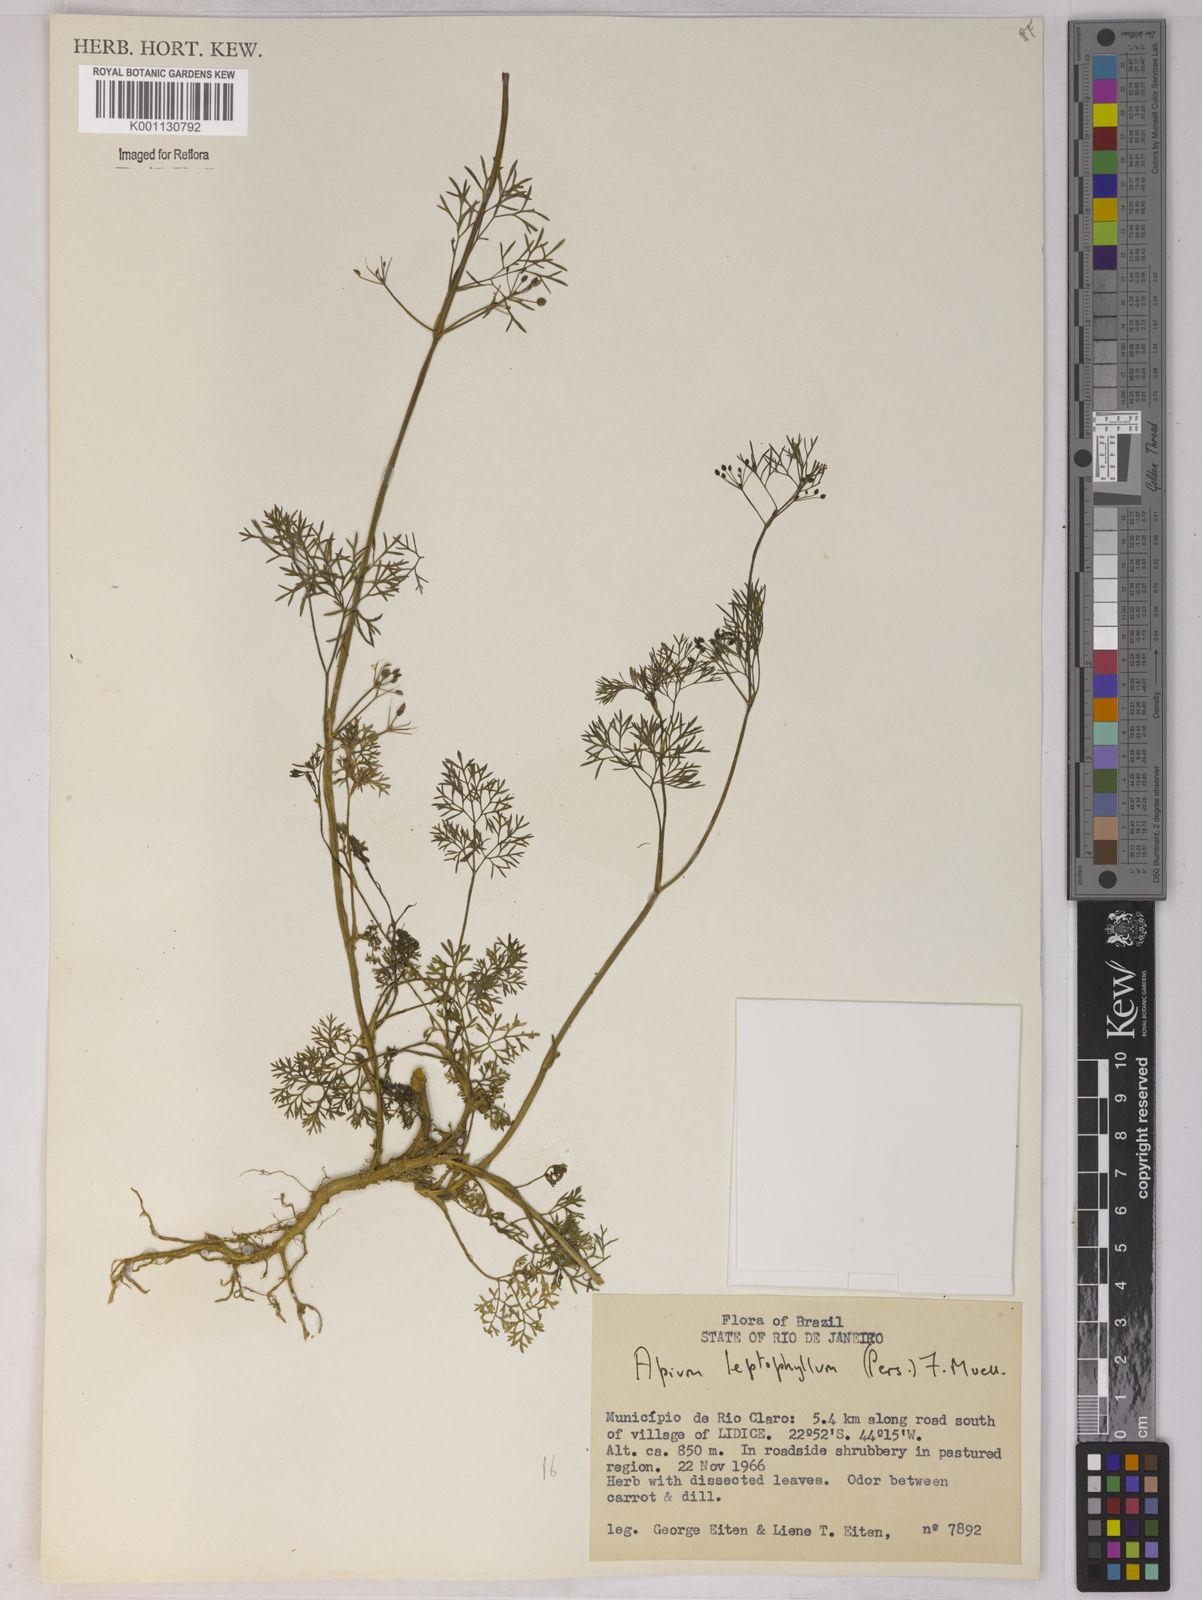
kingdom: Plantae
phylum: Tracheophyta
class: Magnoliopsida
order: Apiales
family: Apiaceae
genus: Apium
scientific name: Apium
